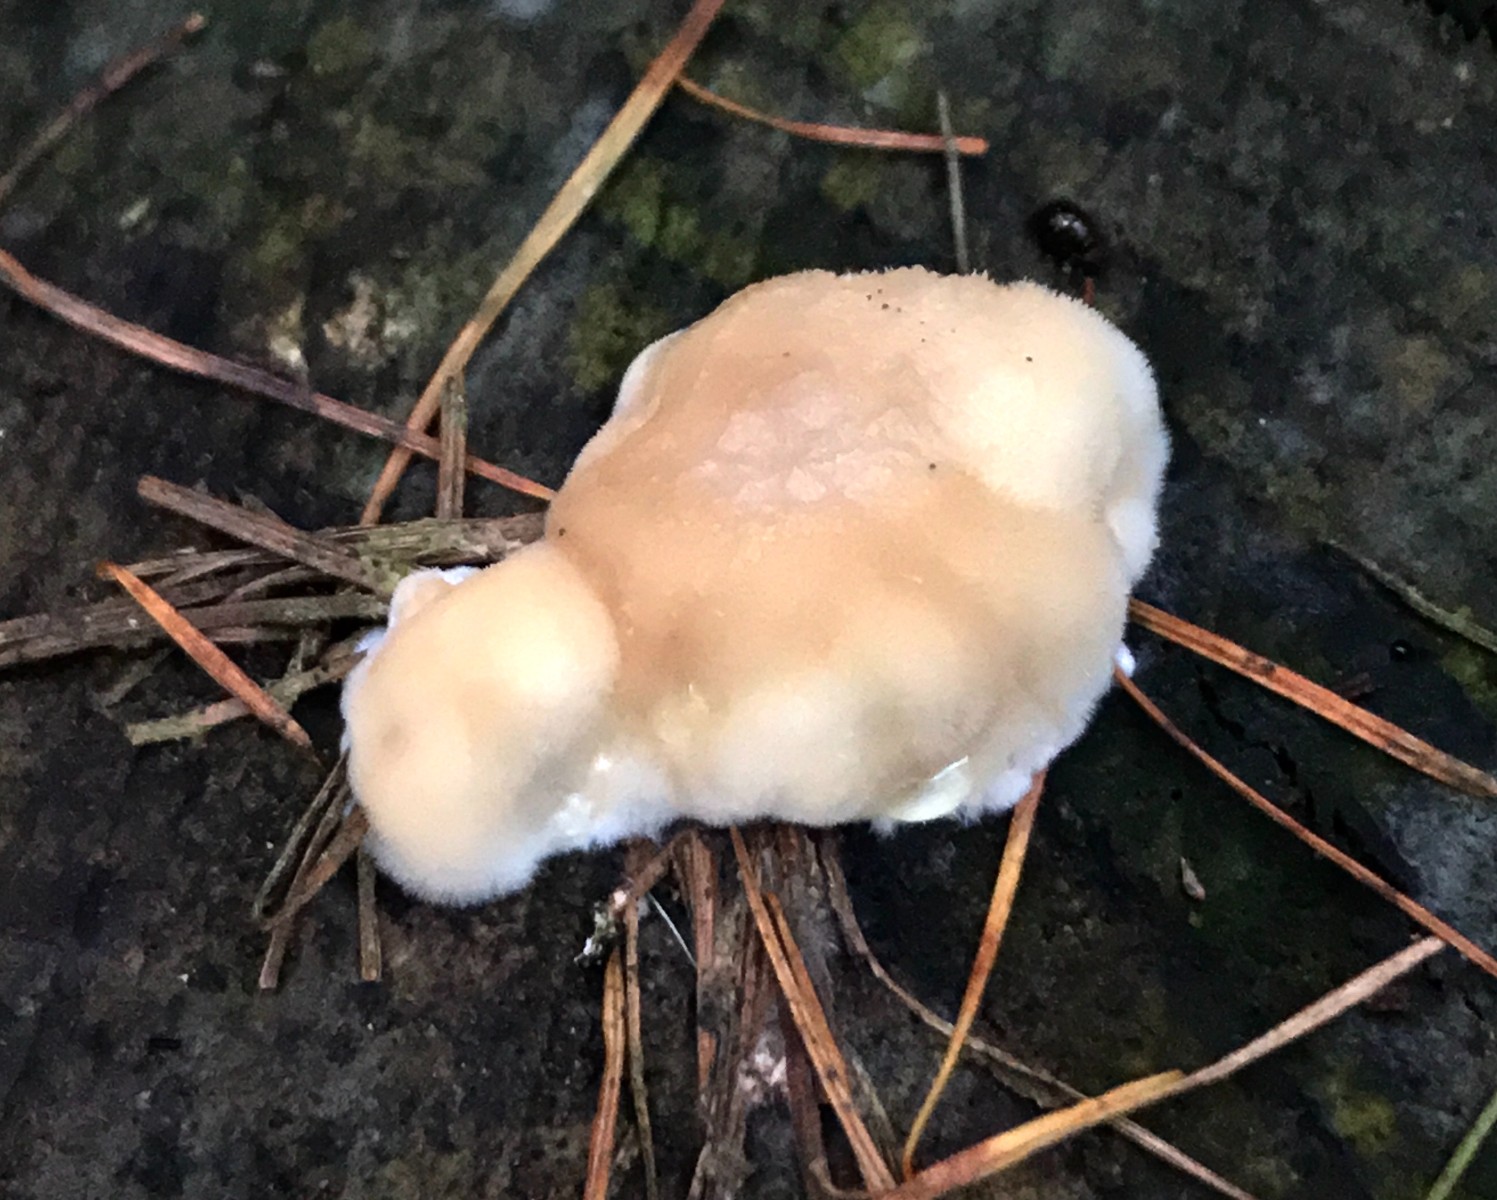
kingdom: Fungi
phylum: Basidiomycota
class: Agaricomycetes
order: Polyporales
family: Dacryobolaceae
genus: Postia
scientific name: Postia ptychogaster
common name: støvende kødporesvamp
